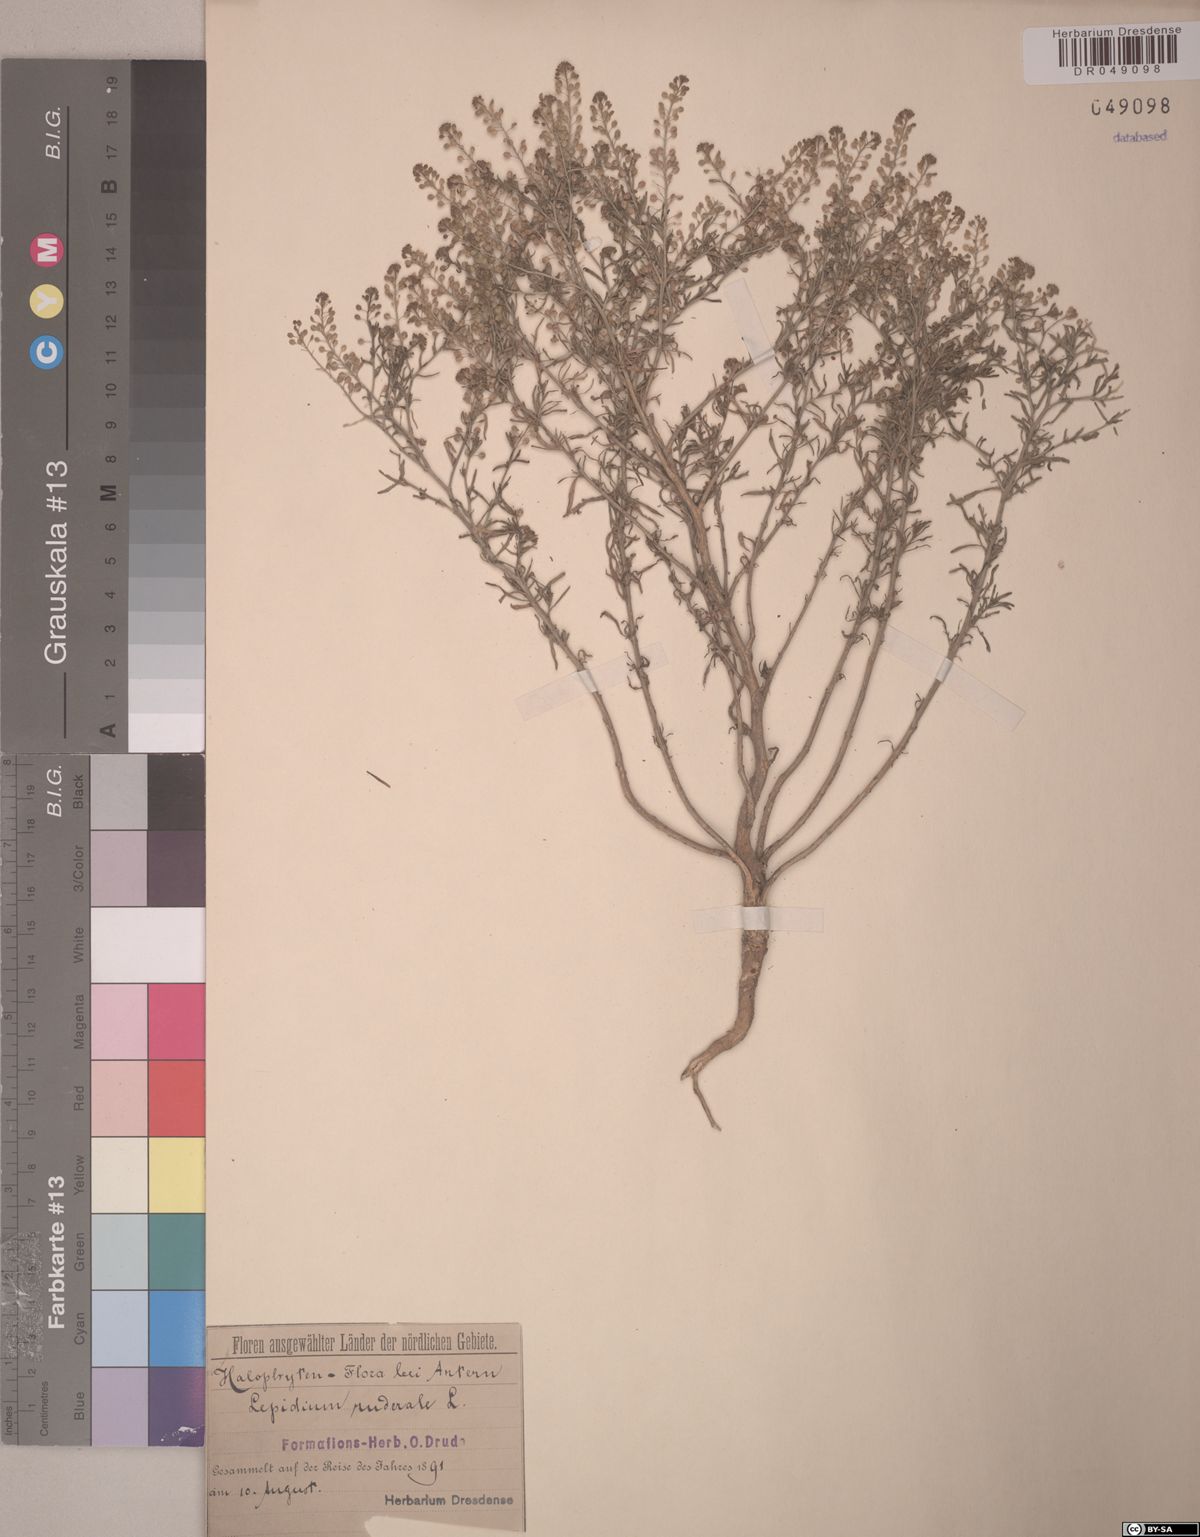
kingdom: Plantae
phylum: Tracheophyta
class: Magnoliopsida
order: Brassicales
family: Brassicaceae
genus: Lepidium
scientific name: Lepidium ruderale
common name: Narrow-leaved pepperwort
